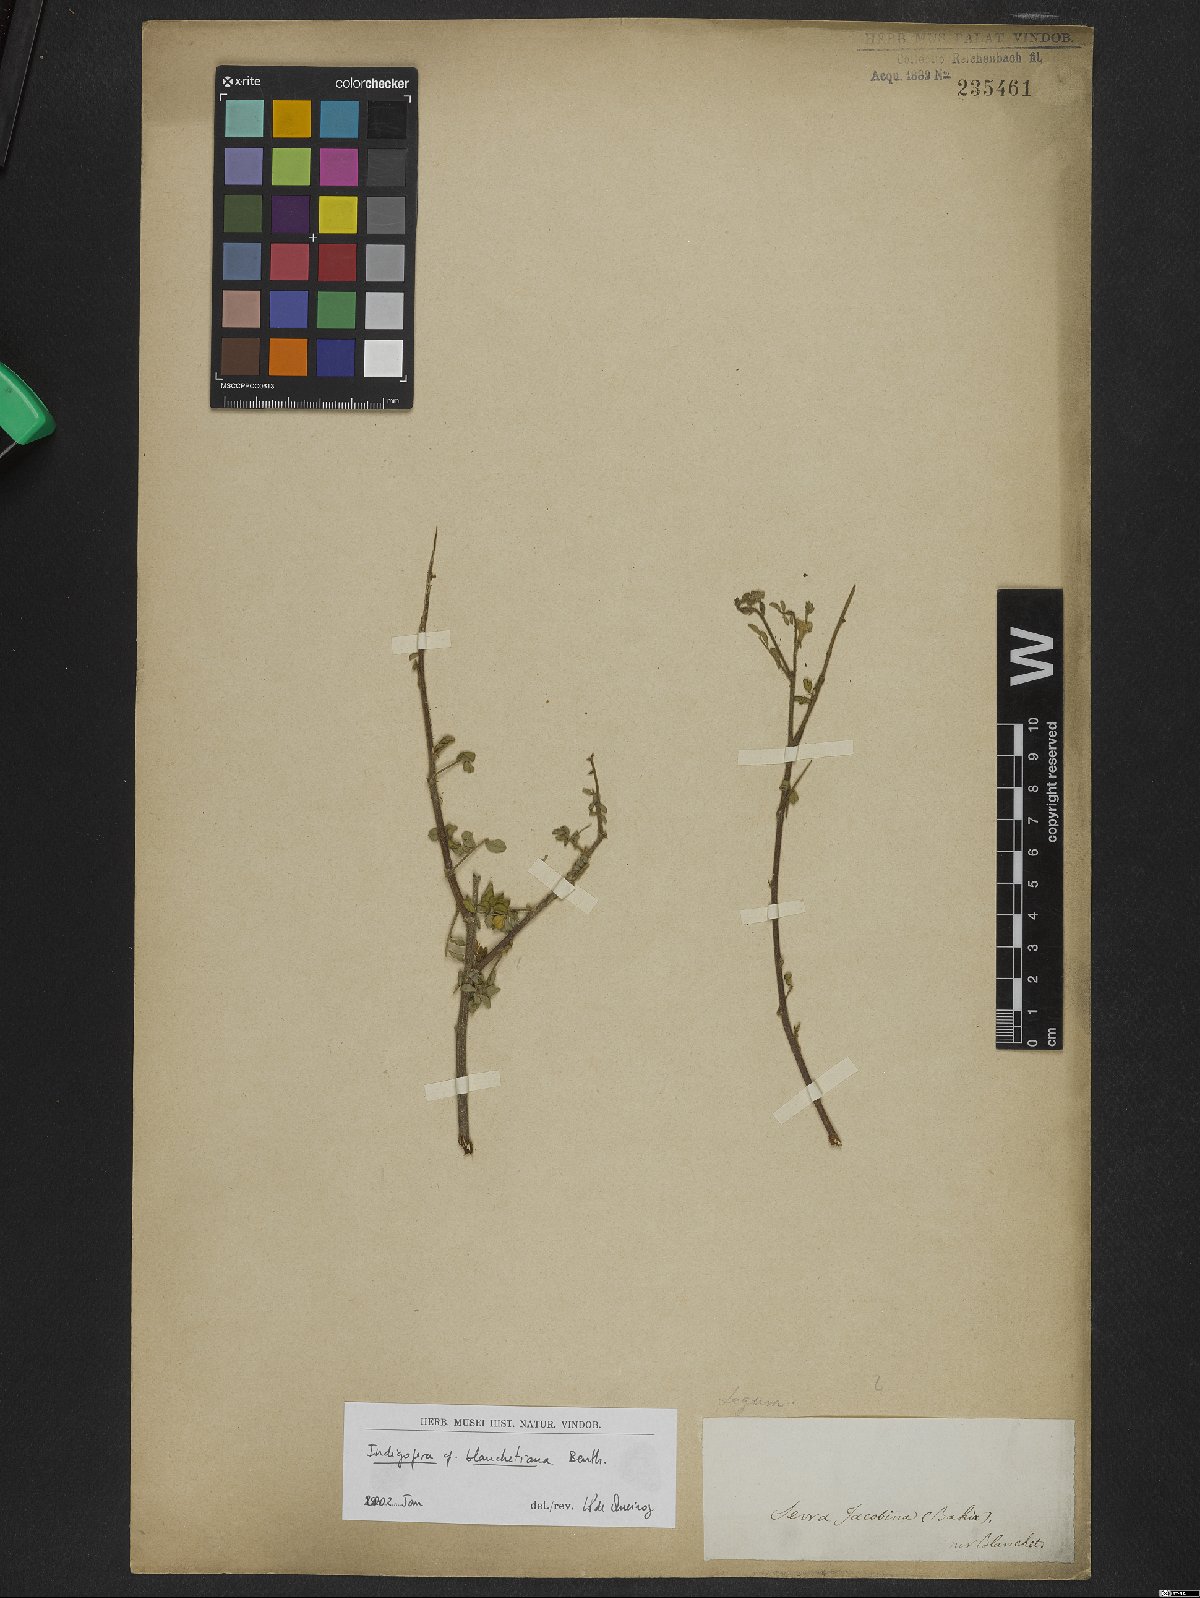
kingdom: Plantae
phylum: Tracheophyta
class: Magnoliopsida
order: Fabales
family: Fabaceae
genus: Indigofera
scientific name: Indigofera blanchetiana
